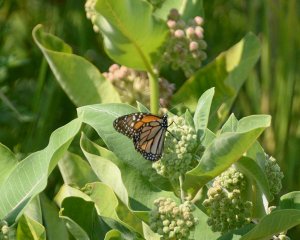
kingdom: Animalia
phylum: Arthropoda
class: Insecta
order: Lepidoptera
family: Nymphalidae
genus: Danaus
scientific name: Danaus plexippus
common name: Monarch
